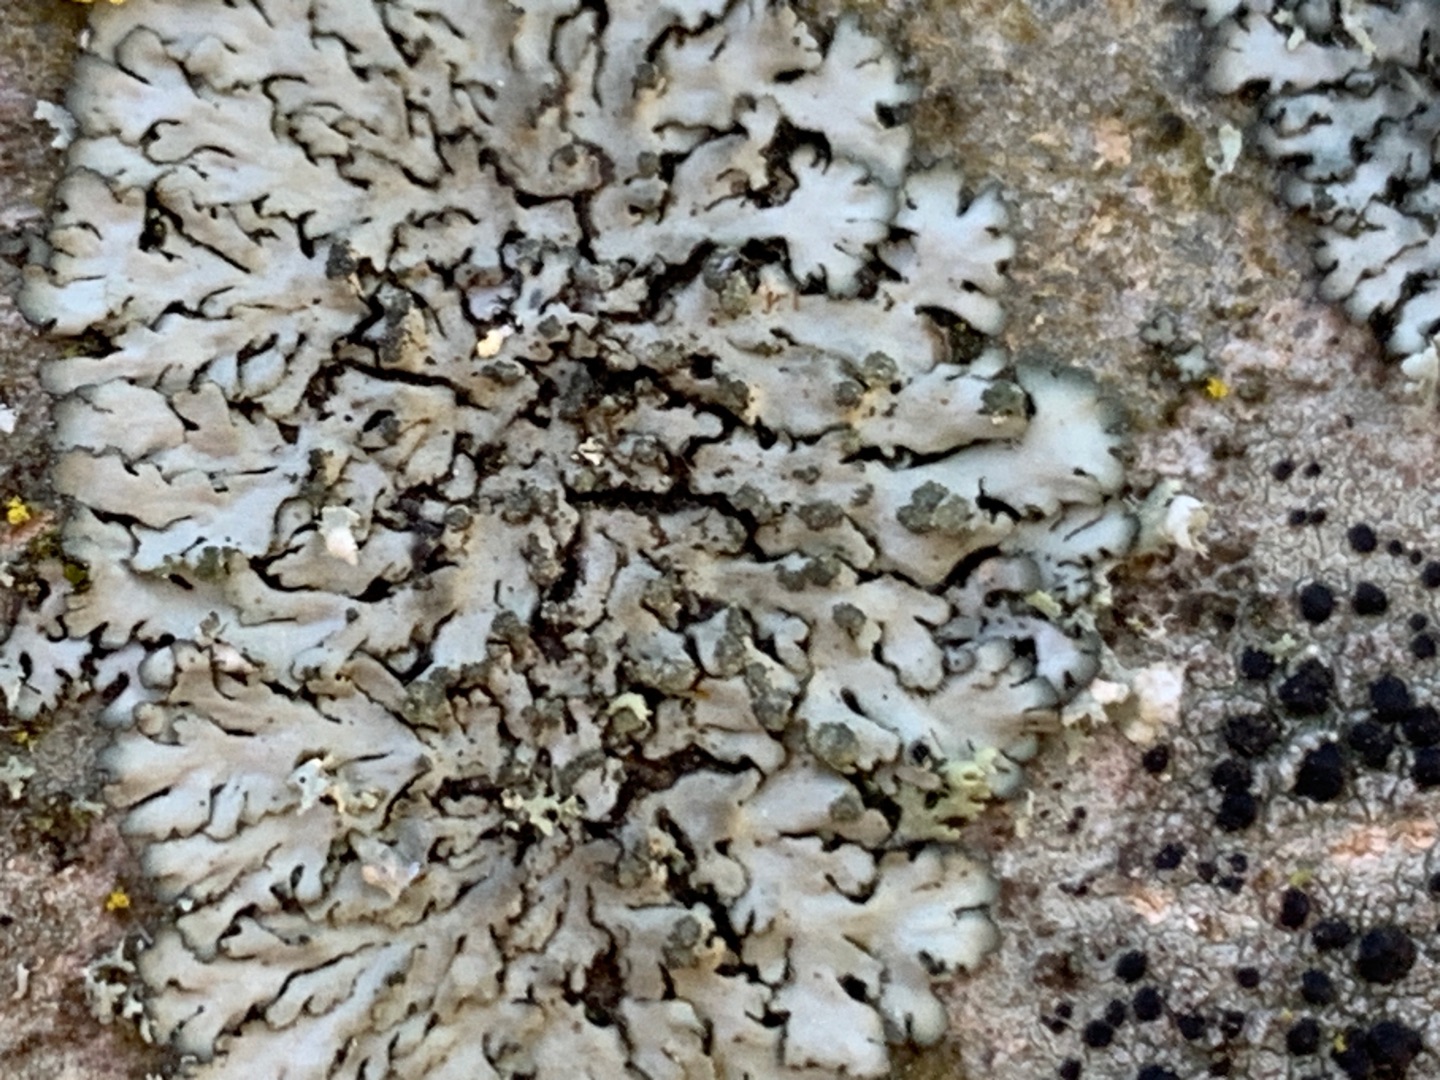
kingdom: Fungi
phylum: Ascomycota
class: Lecanoromycetes
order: Caliciales
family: Physciaceae
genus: Phaeophyscia
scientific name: Phaeophyscia orbicularis
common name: Grågrøn rosetlav
